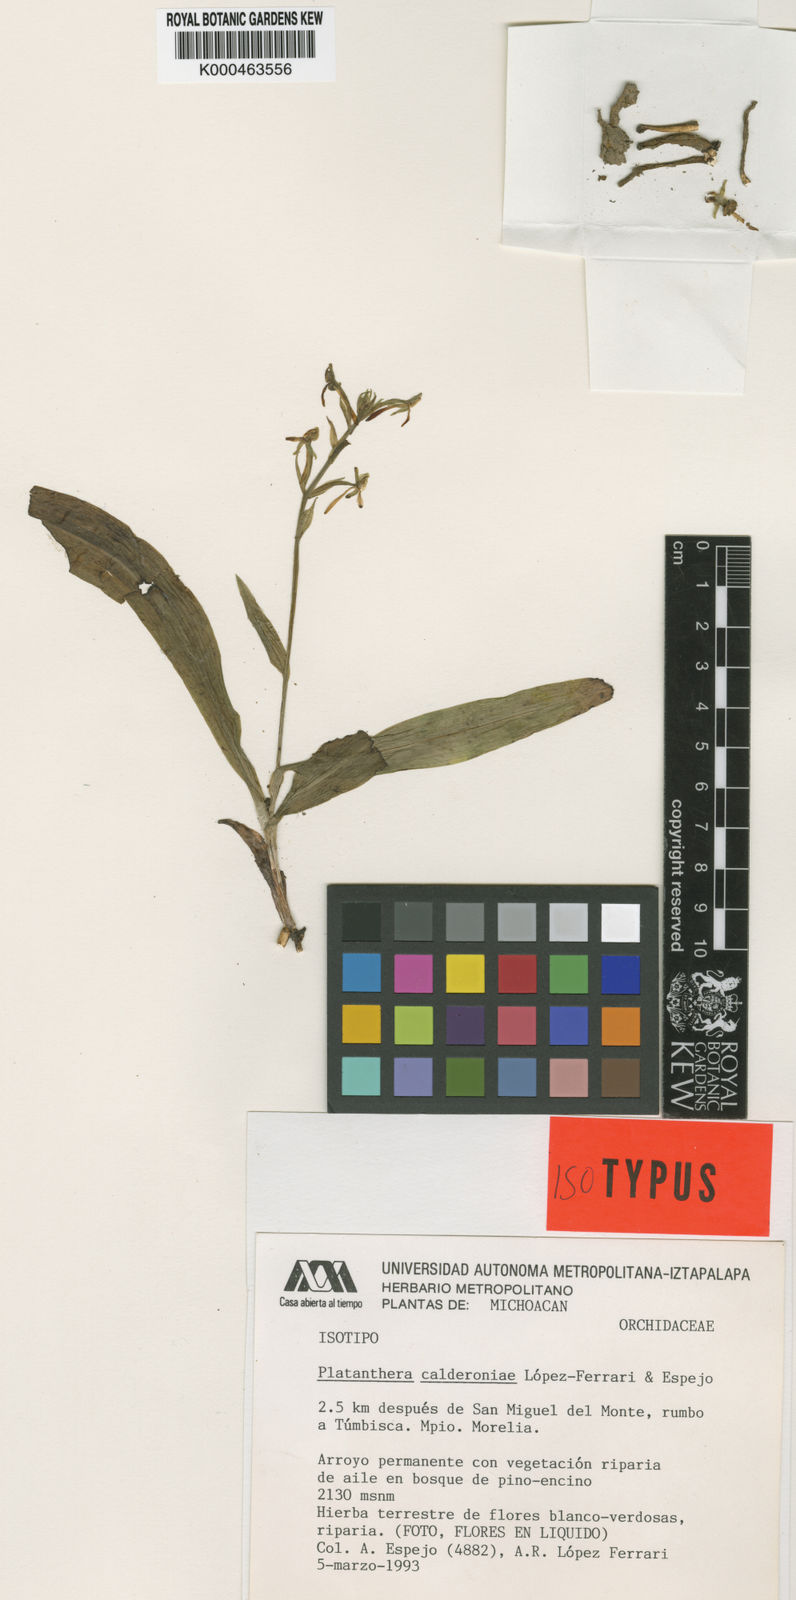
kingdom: Plantae
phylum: Tracheophyta
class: Liliopsida
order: Asparagales
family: Orchidaceae
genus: Platanthera
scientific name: Platanthera
